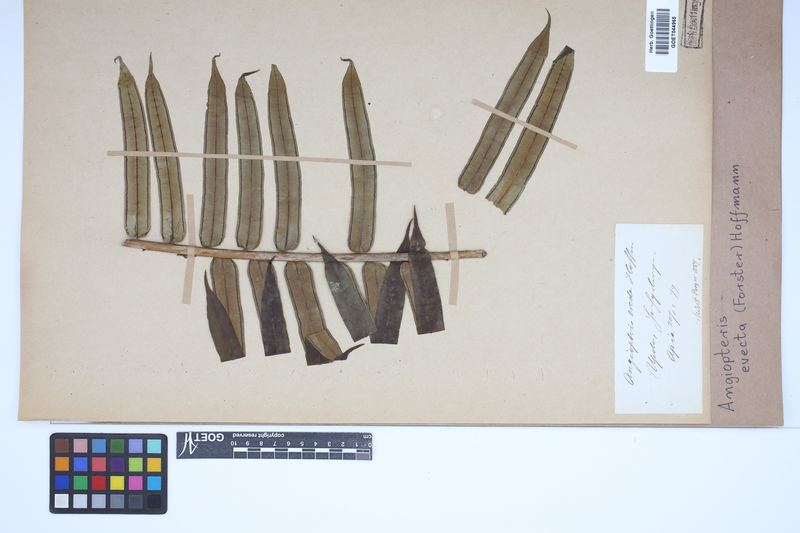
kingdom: Plantae
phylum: Tracheophyta
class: Polypodiopsida
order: Marattiales
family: Marattiaceae
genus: Angiopteris
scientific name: Angiopteris evecta
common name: Mule's-foot fern
